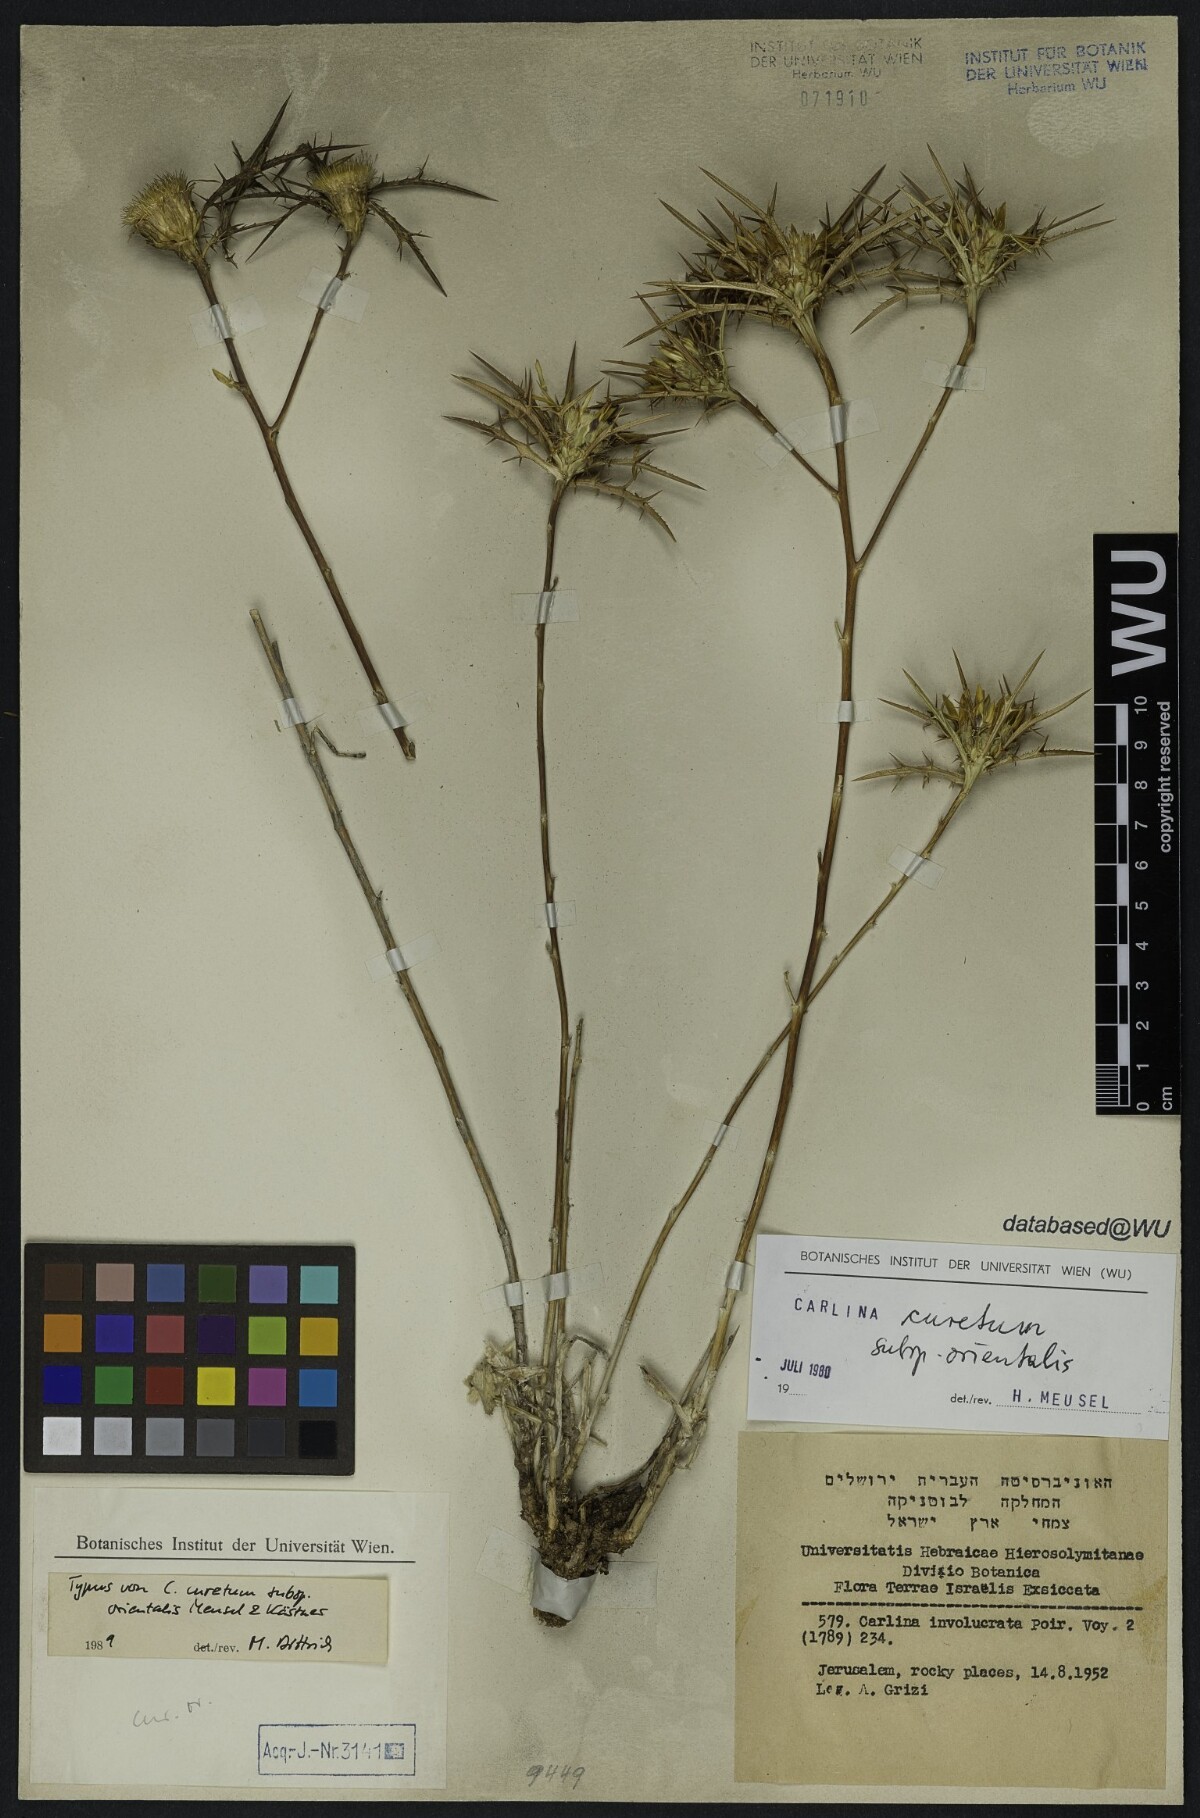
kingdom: Plantae
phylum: Tracheophyta
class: Magnoliopsida
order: Asterales
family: Asteraceae
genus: Carlina
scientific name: Carlina curetum
